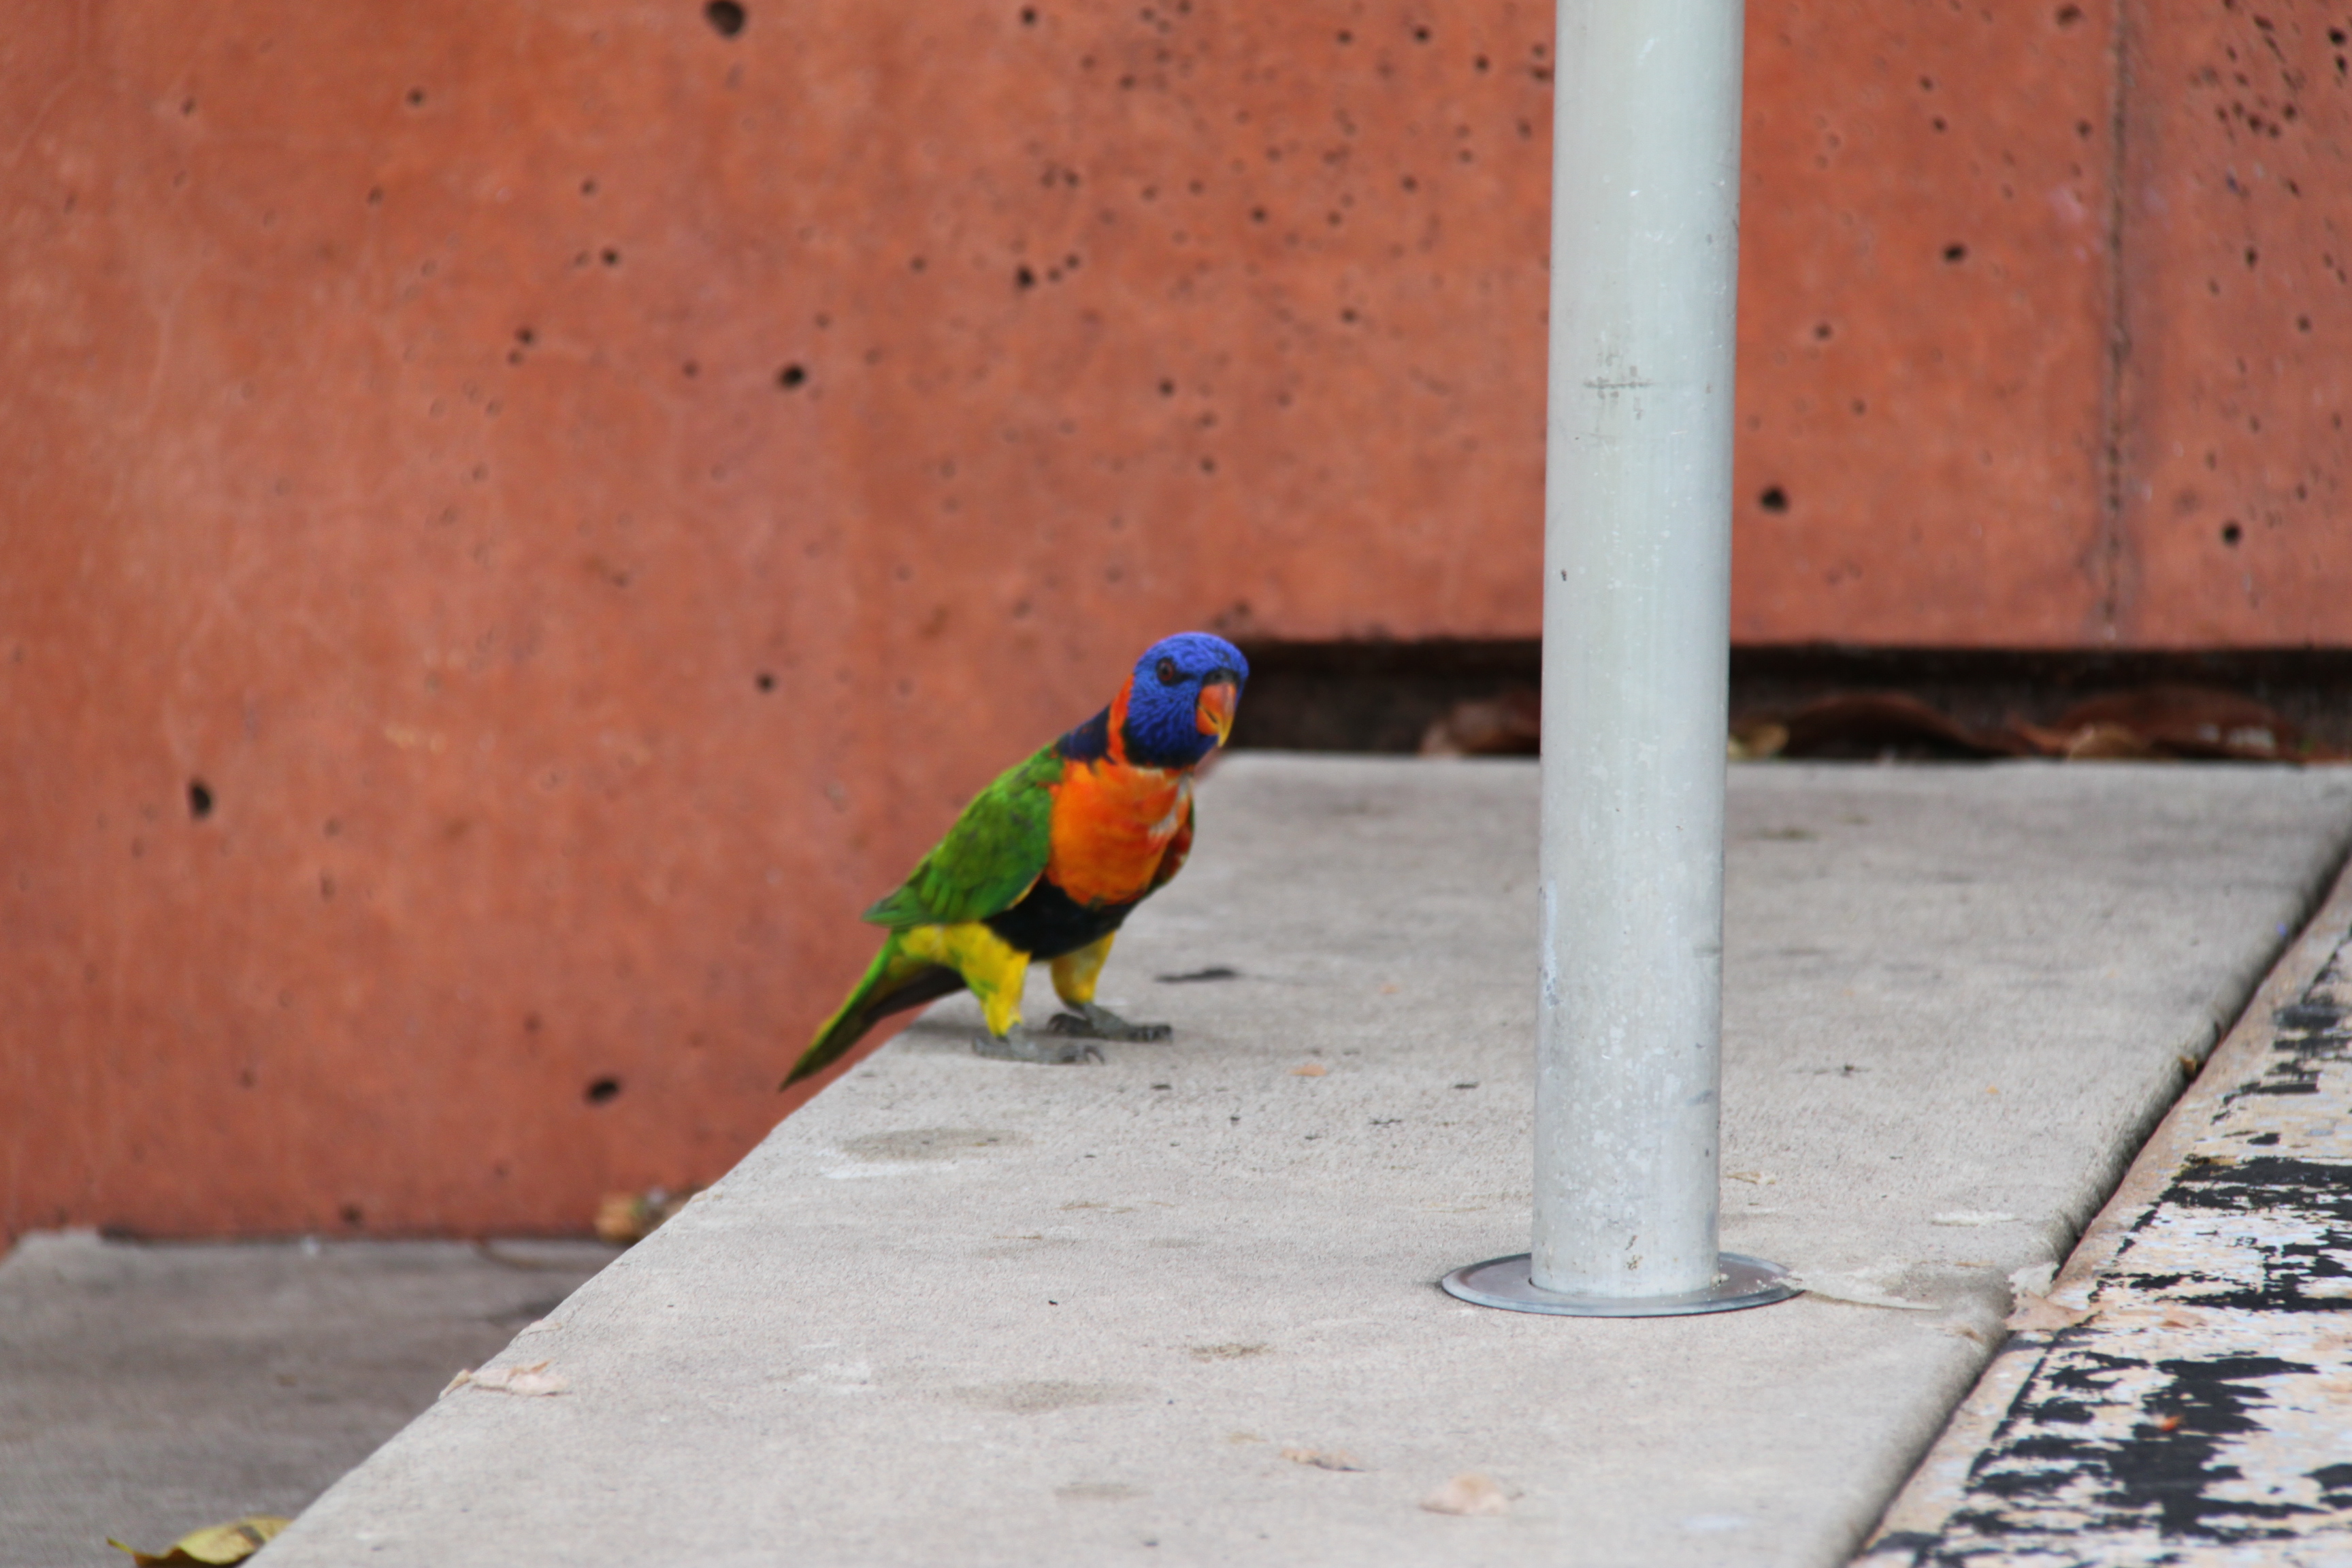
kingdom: Animalia
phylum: Chordata
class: Aves
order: Psittaciformes
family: Psittacidae
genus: Trichoglossus
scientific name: Trichoglossus haematodus
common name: Coconut lorikeet
